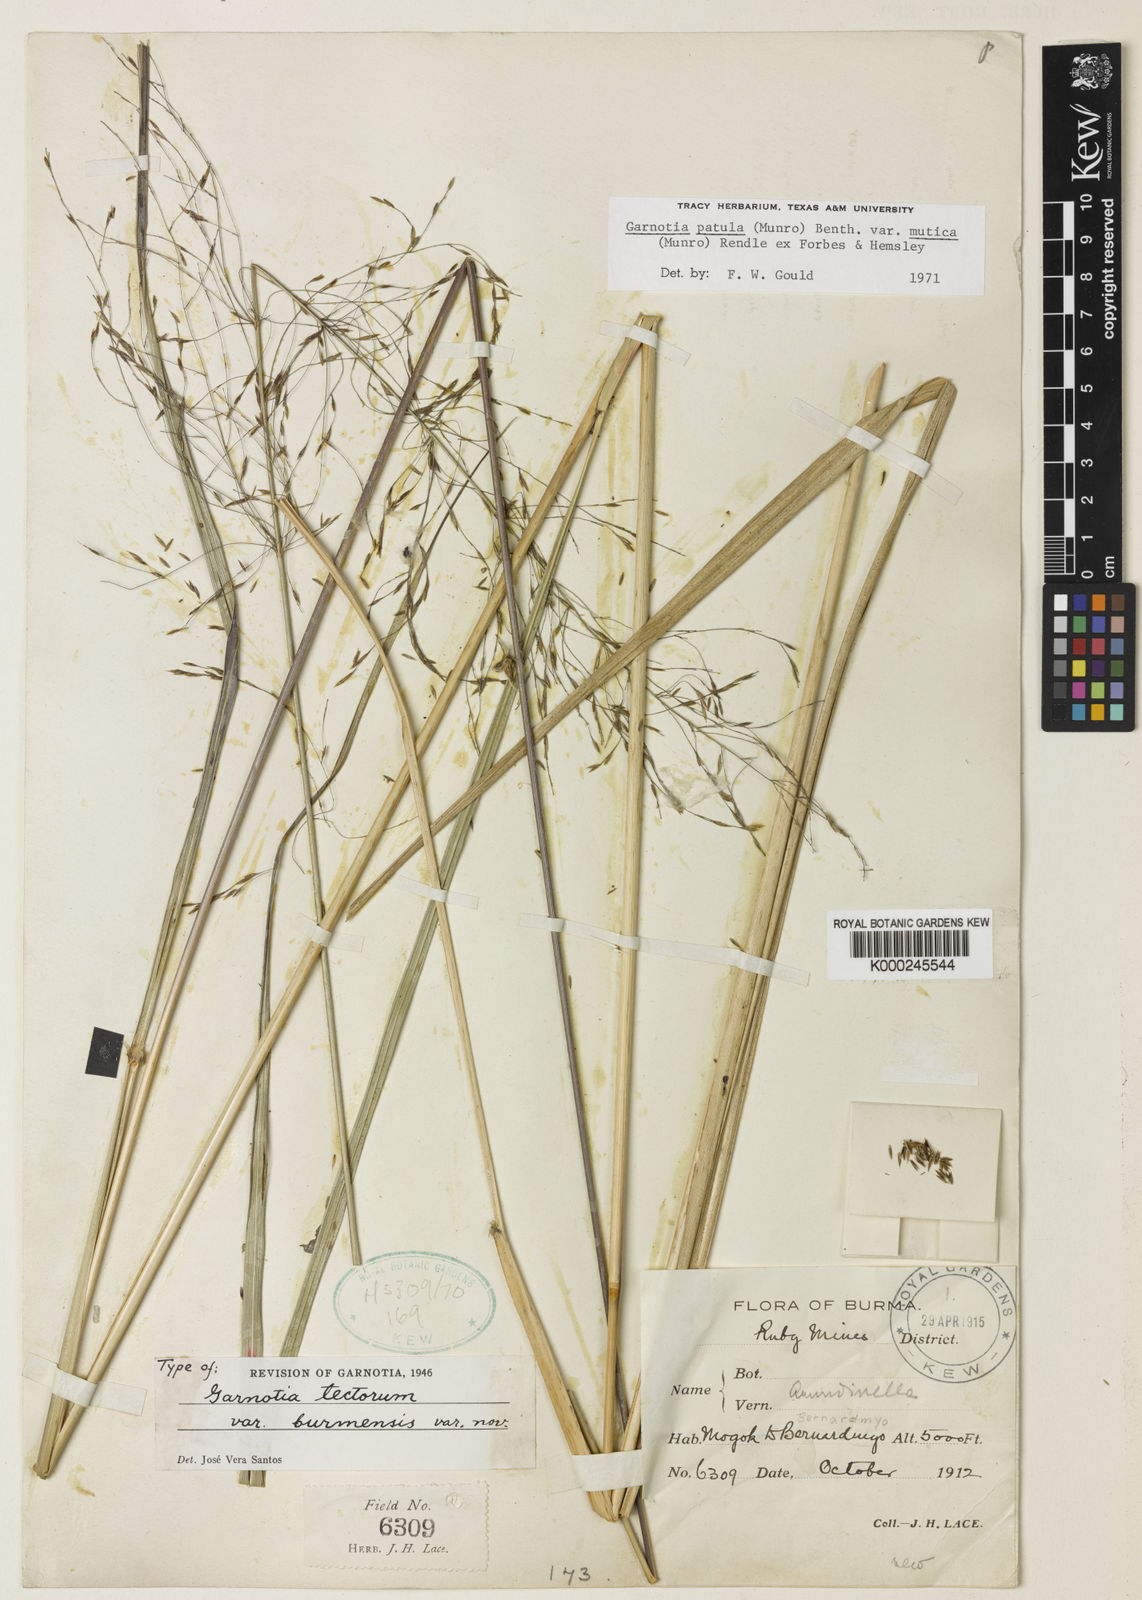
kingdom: Plantae
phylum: Tracheophyta
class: Liliopsida
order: Poales
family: Poaceae
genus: Garnotia
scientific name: Garnotia patula
